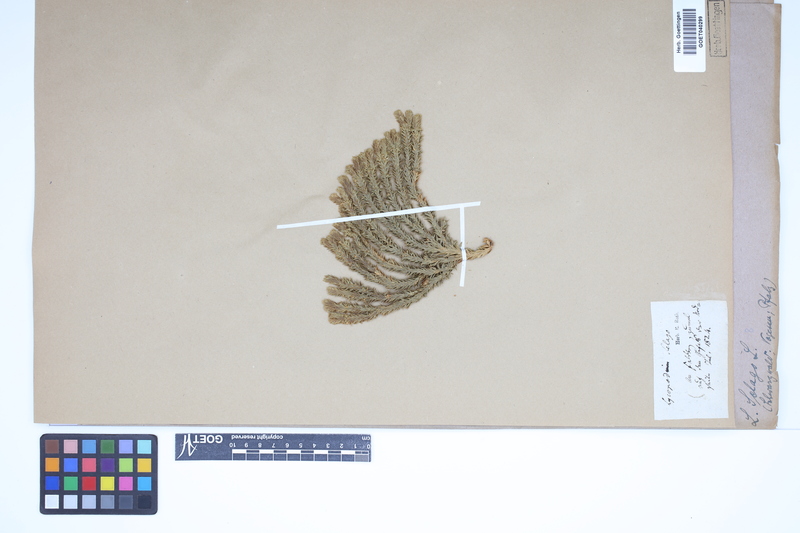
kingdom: Plantae
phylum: Tracheophyta
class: Lycopodiopsida
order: Lycopodiales
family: Lycopodiaceae
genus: Huperzia
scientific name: Huperzia selago
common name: Northern firmoss
